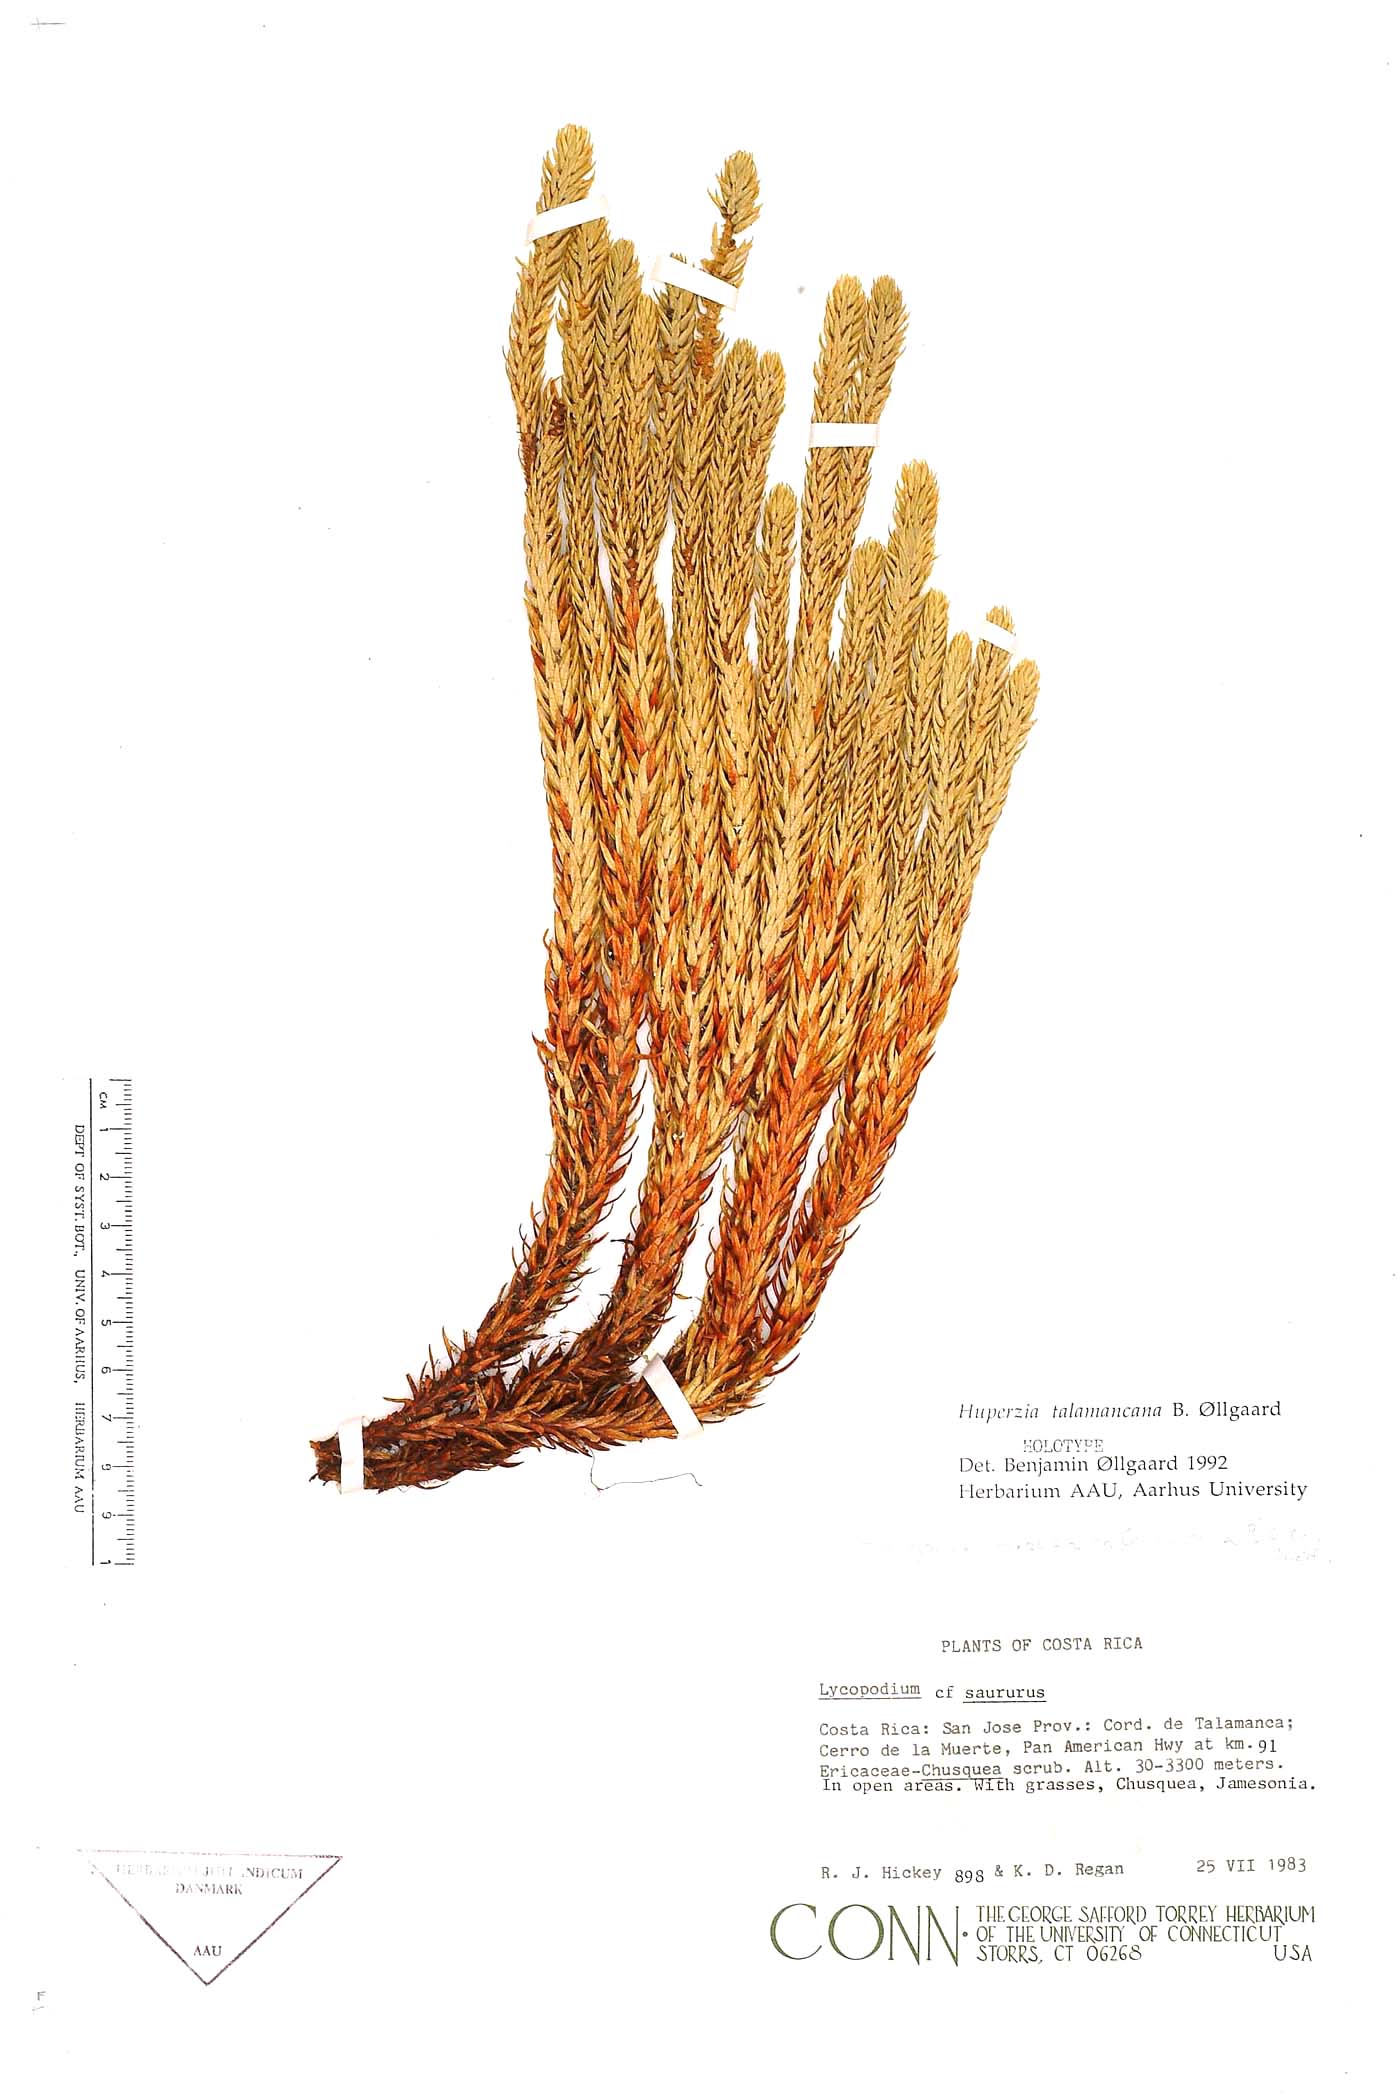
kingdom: Plantae
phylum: Tracheophyta
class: Lycopodiopsida
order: Lycopodiales
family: Lycopodiaceae
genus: Phlegmariurus
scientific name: Phlegmariurus talamancanus
